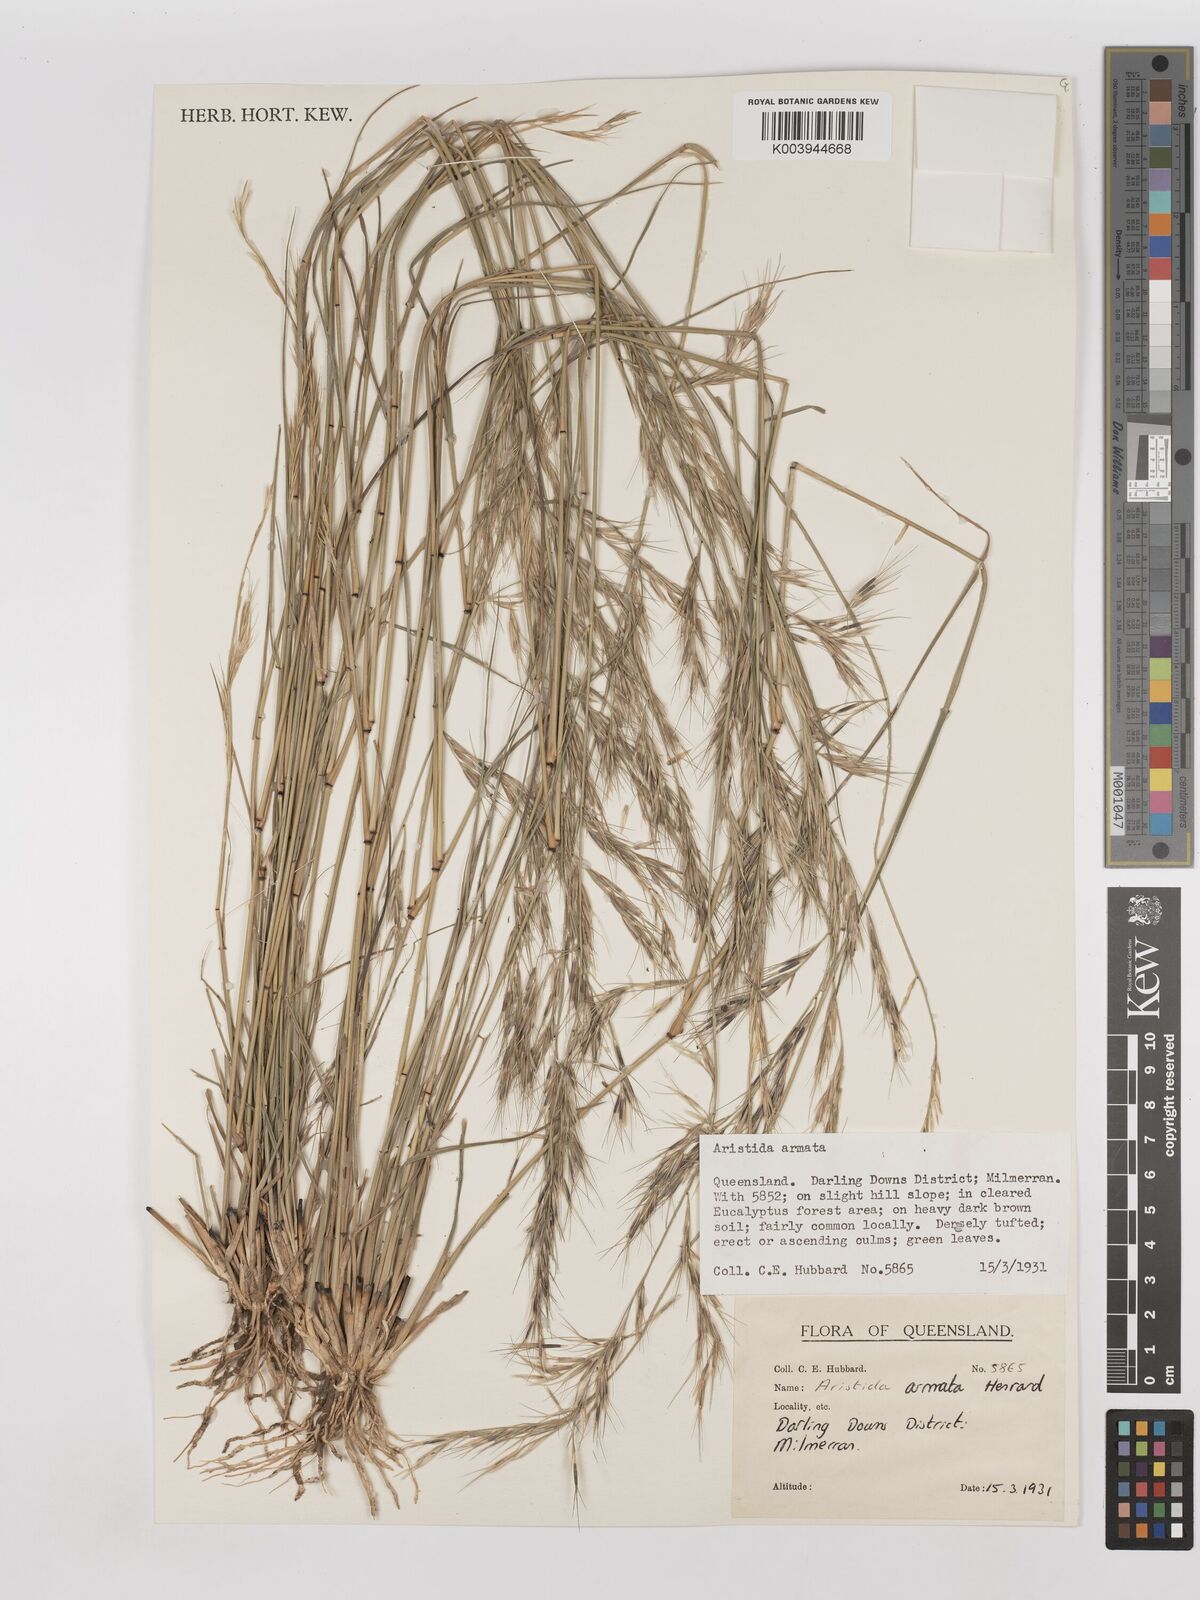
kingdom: Plantae
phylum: Tracheophyta
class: Liliopsida
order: Poales
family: Poaceae
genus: Aristida
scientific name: Aristida calycina
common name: Dark wire grass
